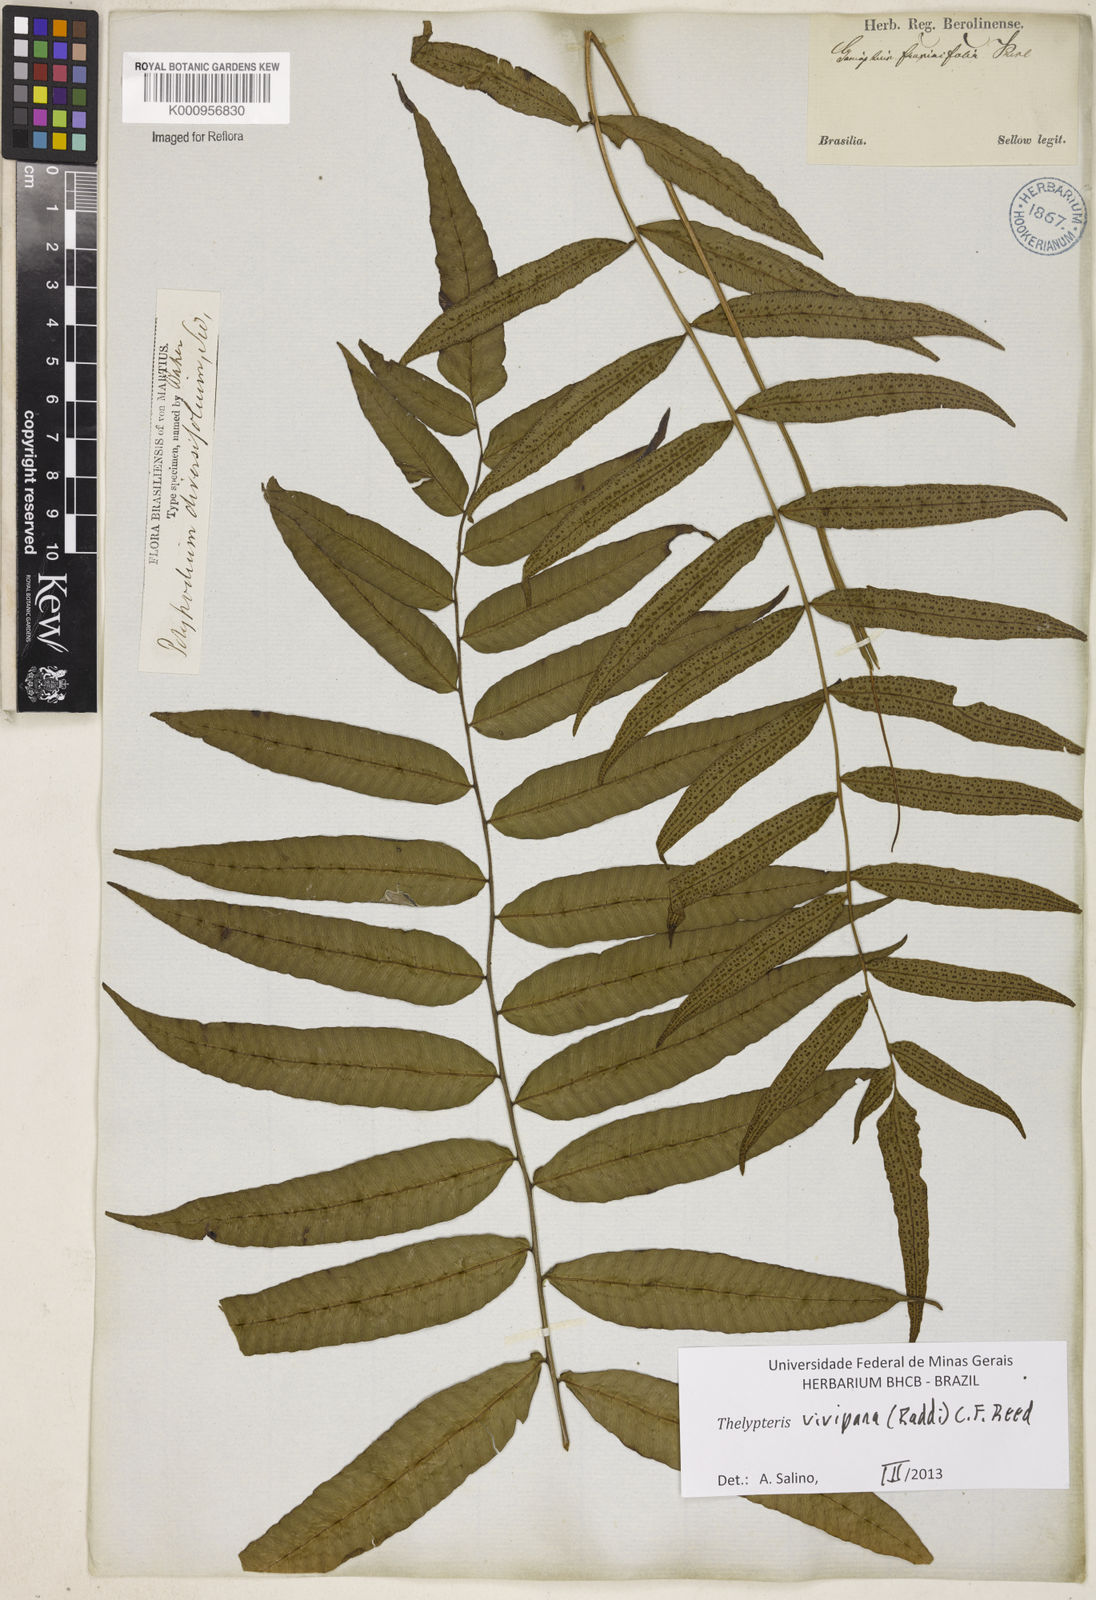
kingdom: Plantae
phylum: Tracheophyta
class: Polypodiopsida
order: Polypodiales
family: Thelypteridaceae
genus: Goniopteris
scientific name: Goniopteris vivipara
